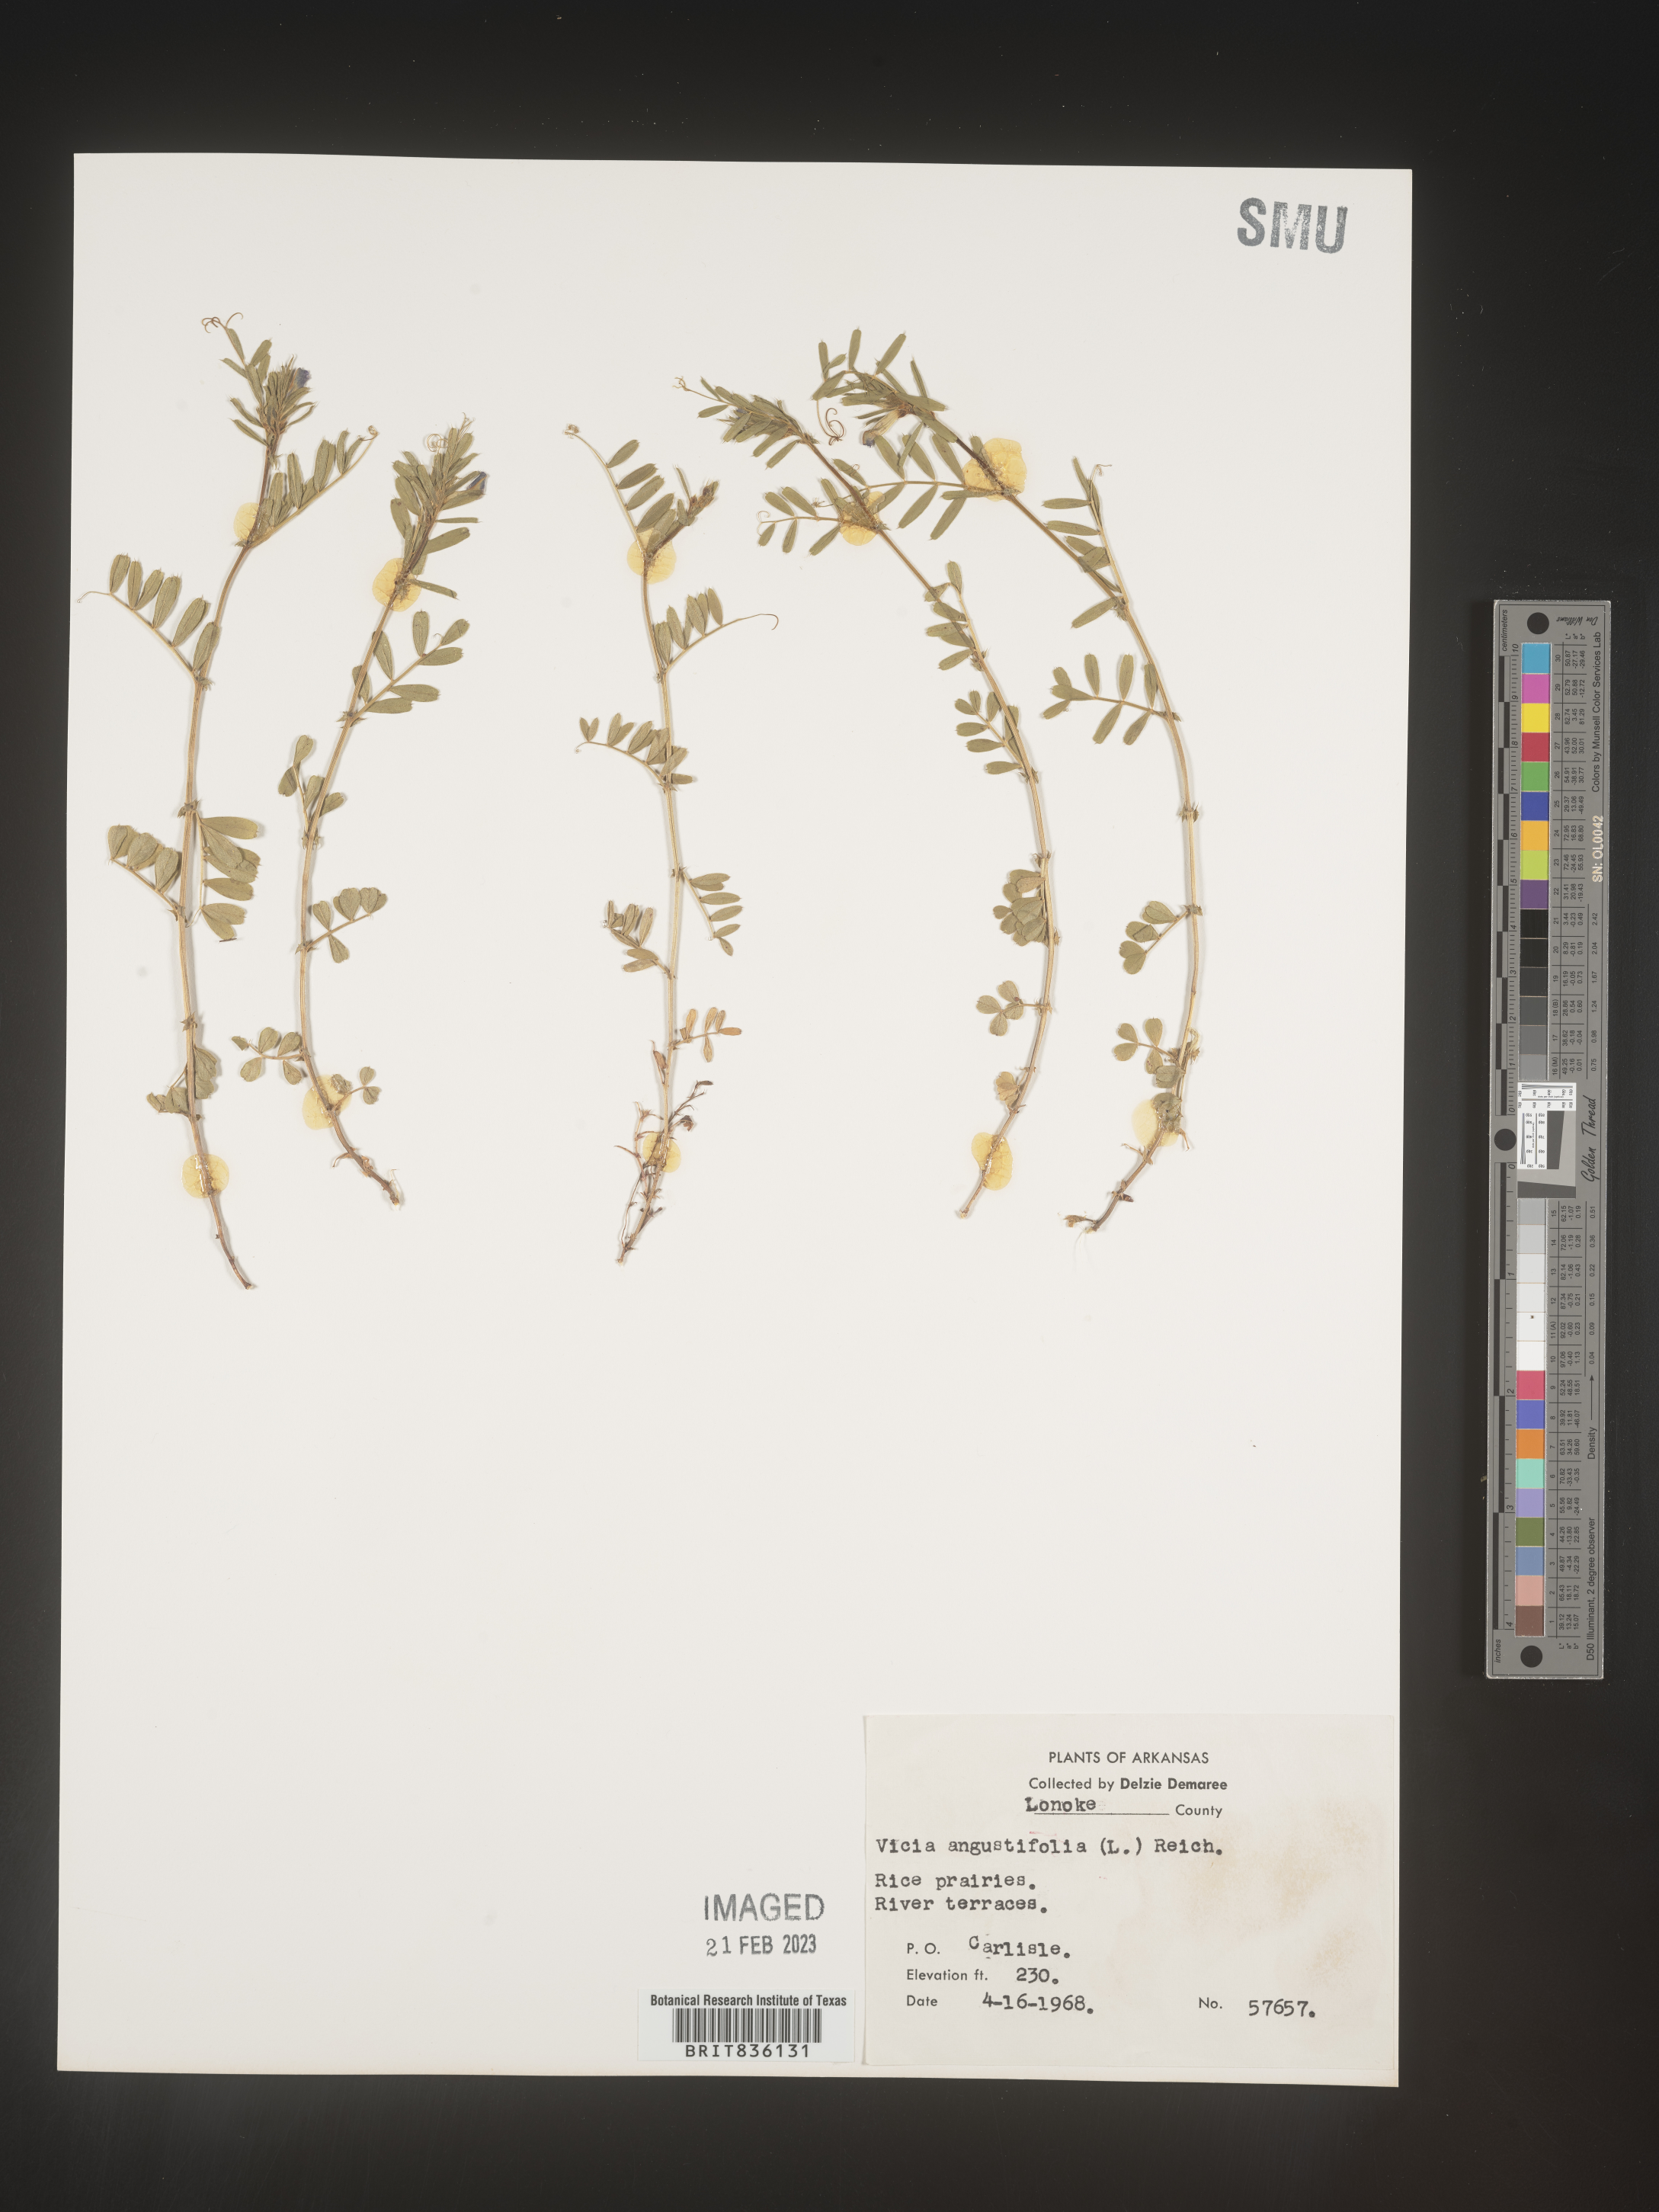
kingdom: Plantae
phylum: Tracheophyta
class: Magnoliopsida
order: Fabales
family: Fabaceae
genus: Vicia
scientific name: Vicia sativa
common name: Garden vetch
